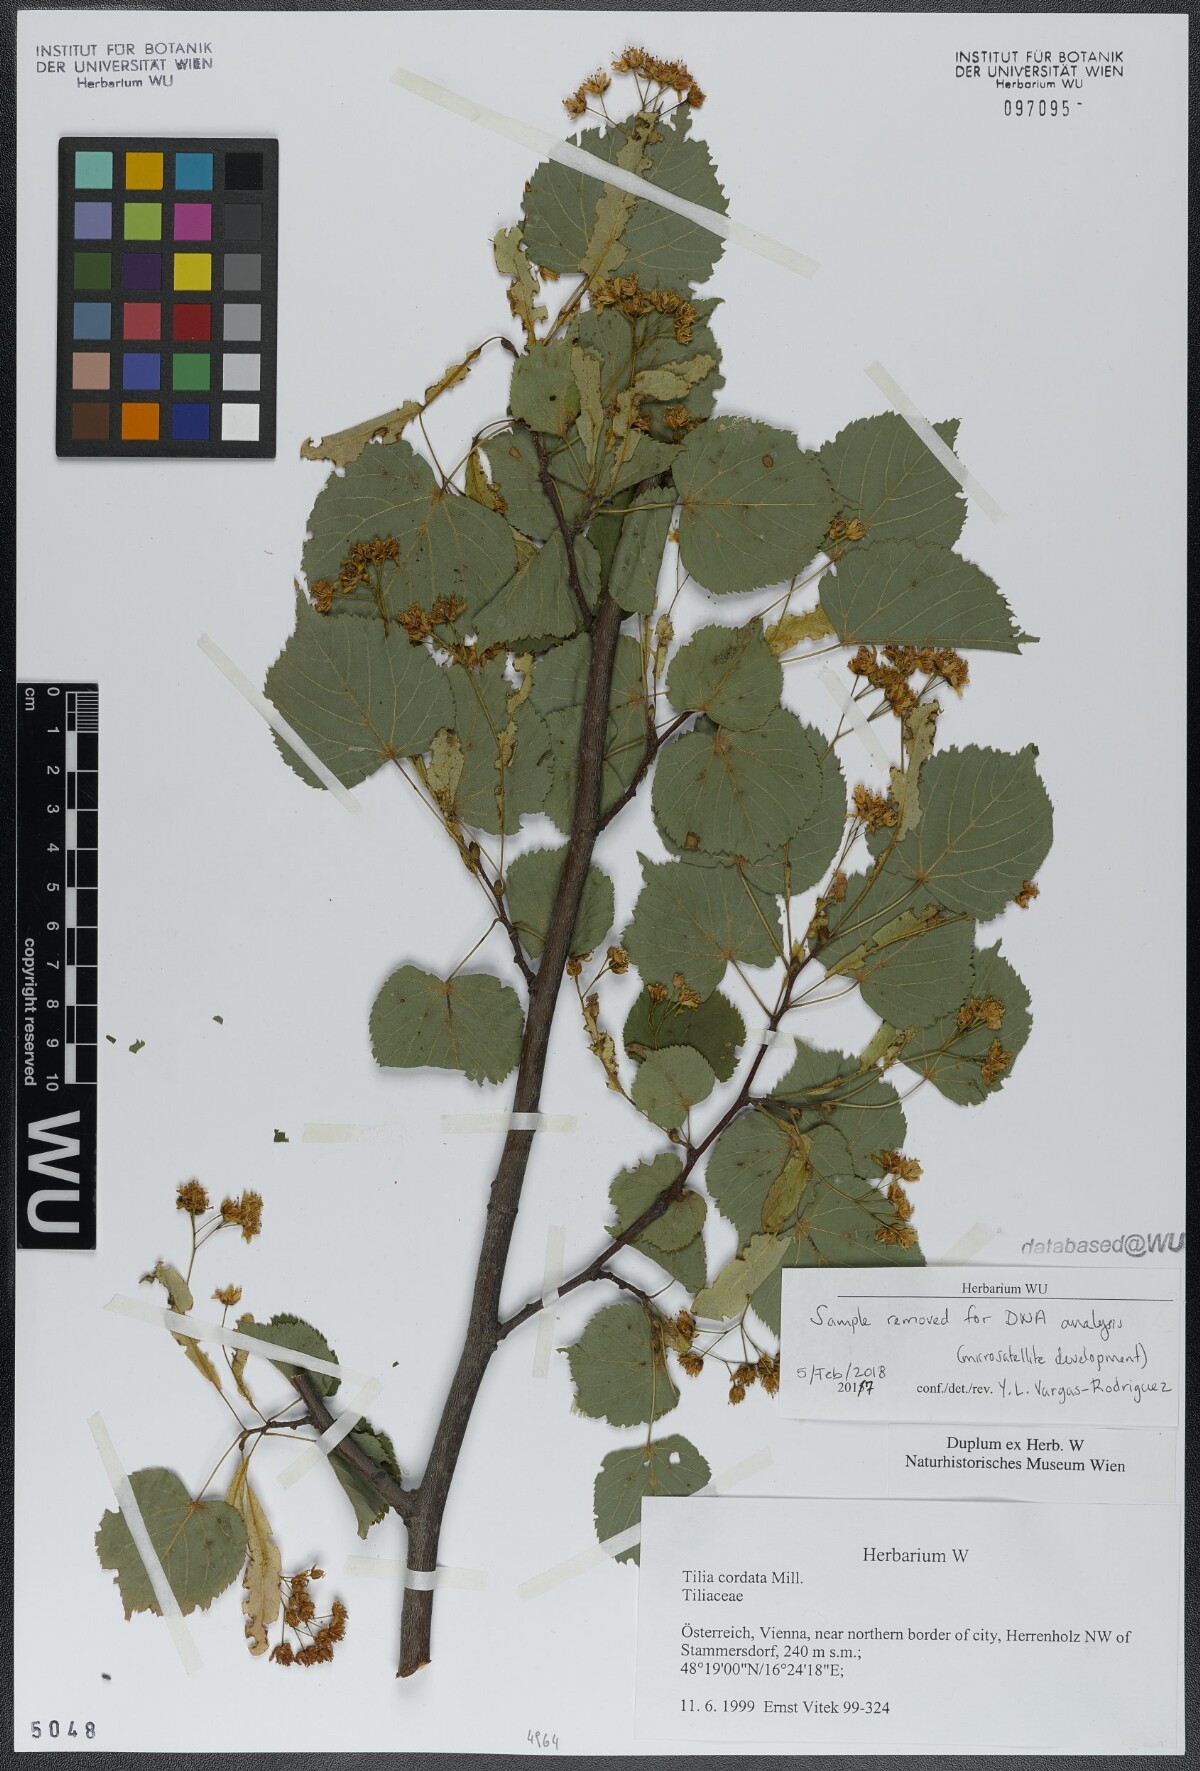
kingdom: Plantae
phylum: Tracheophyta
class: Magnoliopsida
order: Malvales
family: Malvaceae
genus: Tilia
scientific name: Tilia cordata
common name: Small-leaved lime
